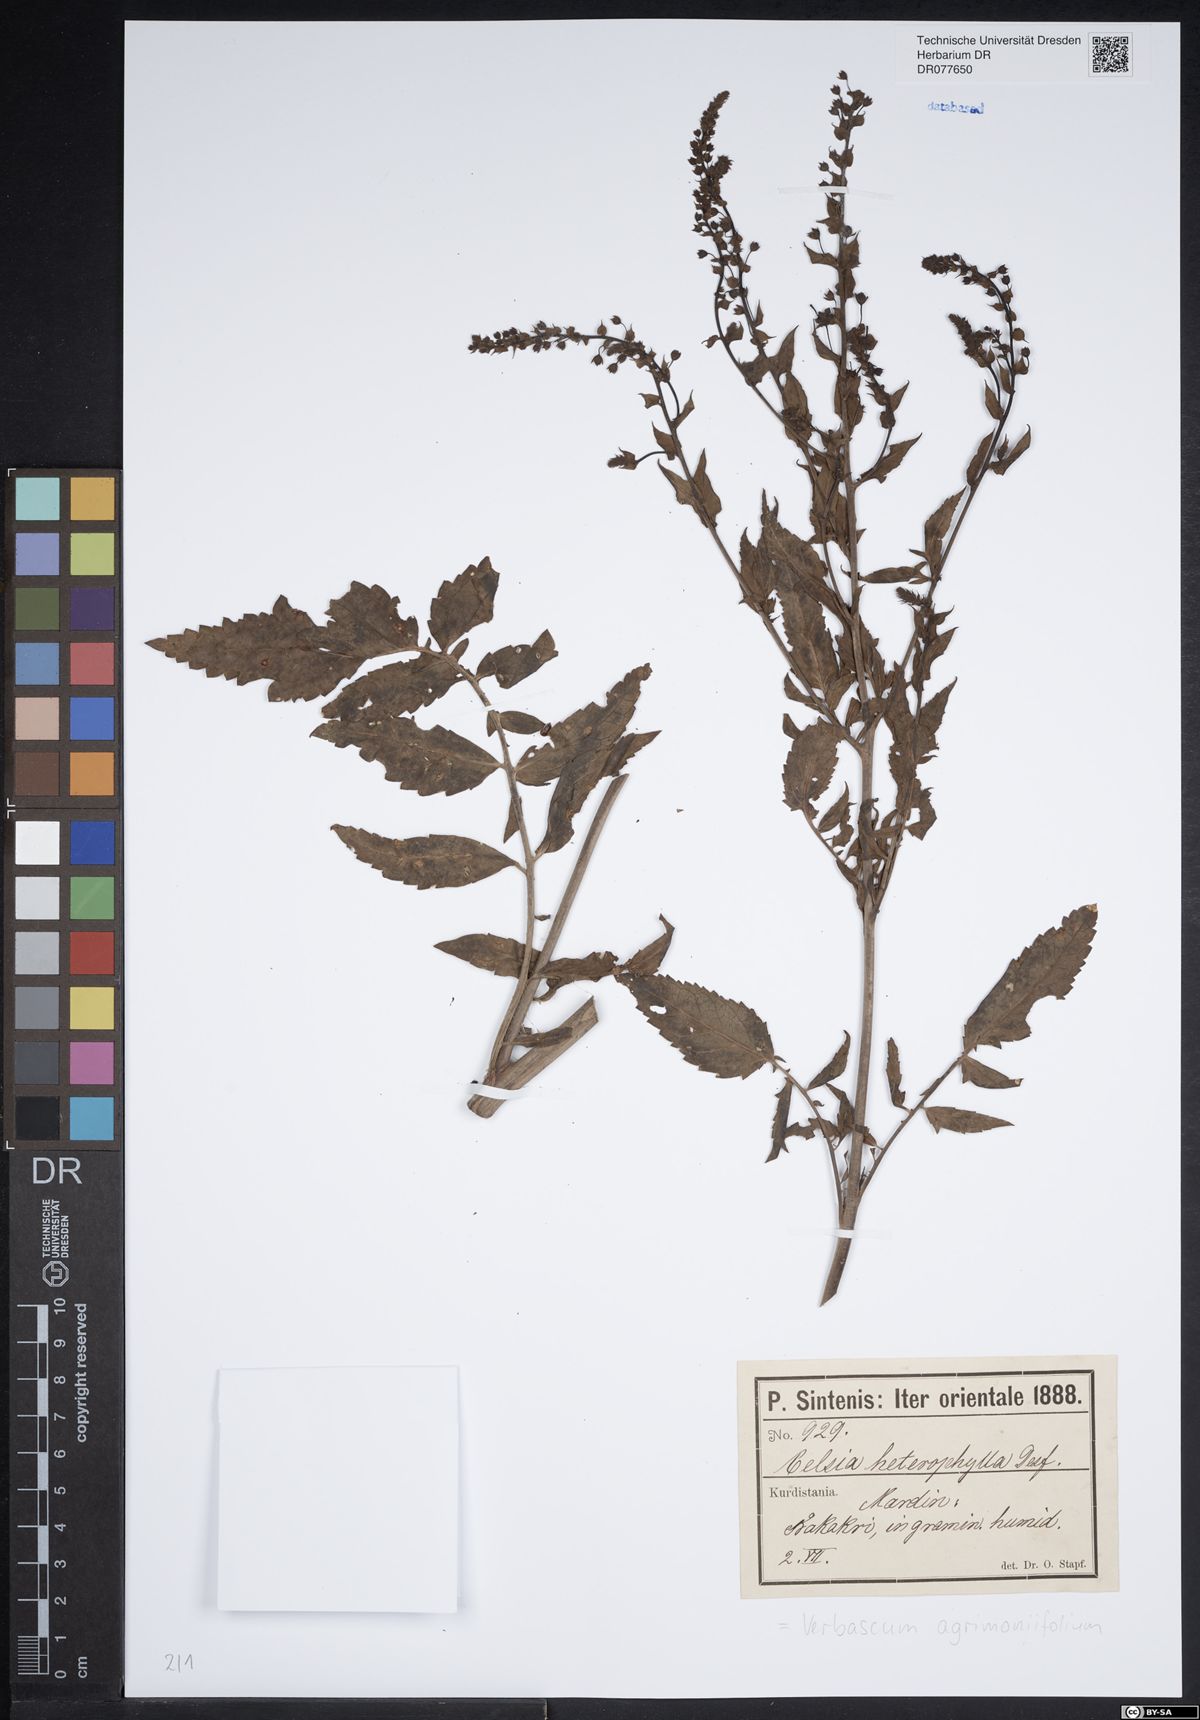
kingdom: Plantae
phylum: Tracheophyta
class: Magnoliopsida
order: Lamiales
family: Scrophulariaceae
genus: Verbascum
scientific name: Verbascum agrimoniifolium
